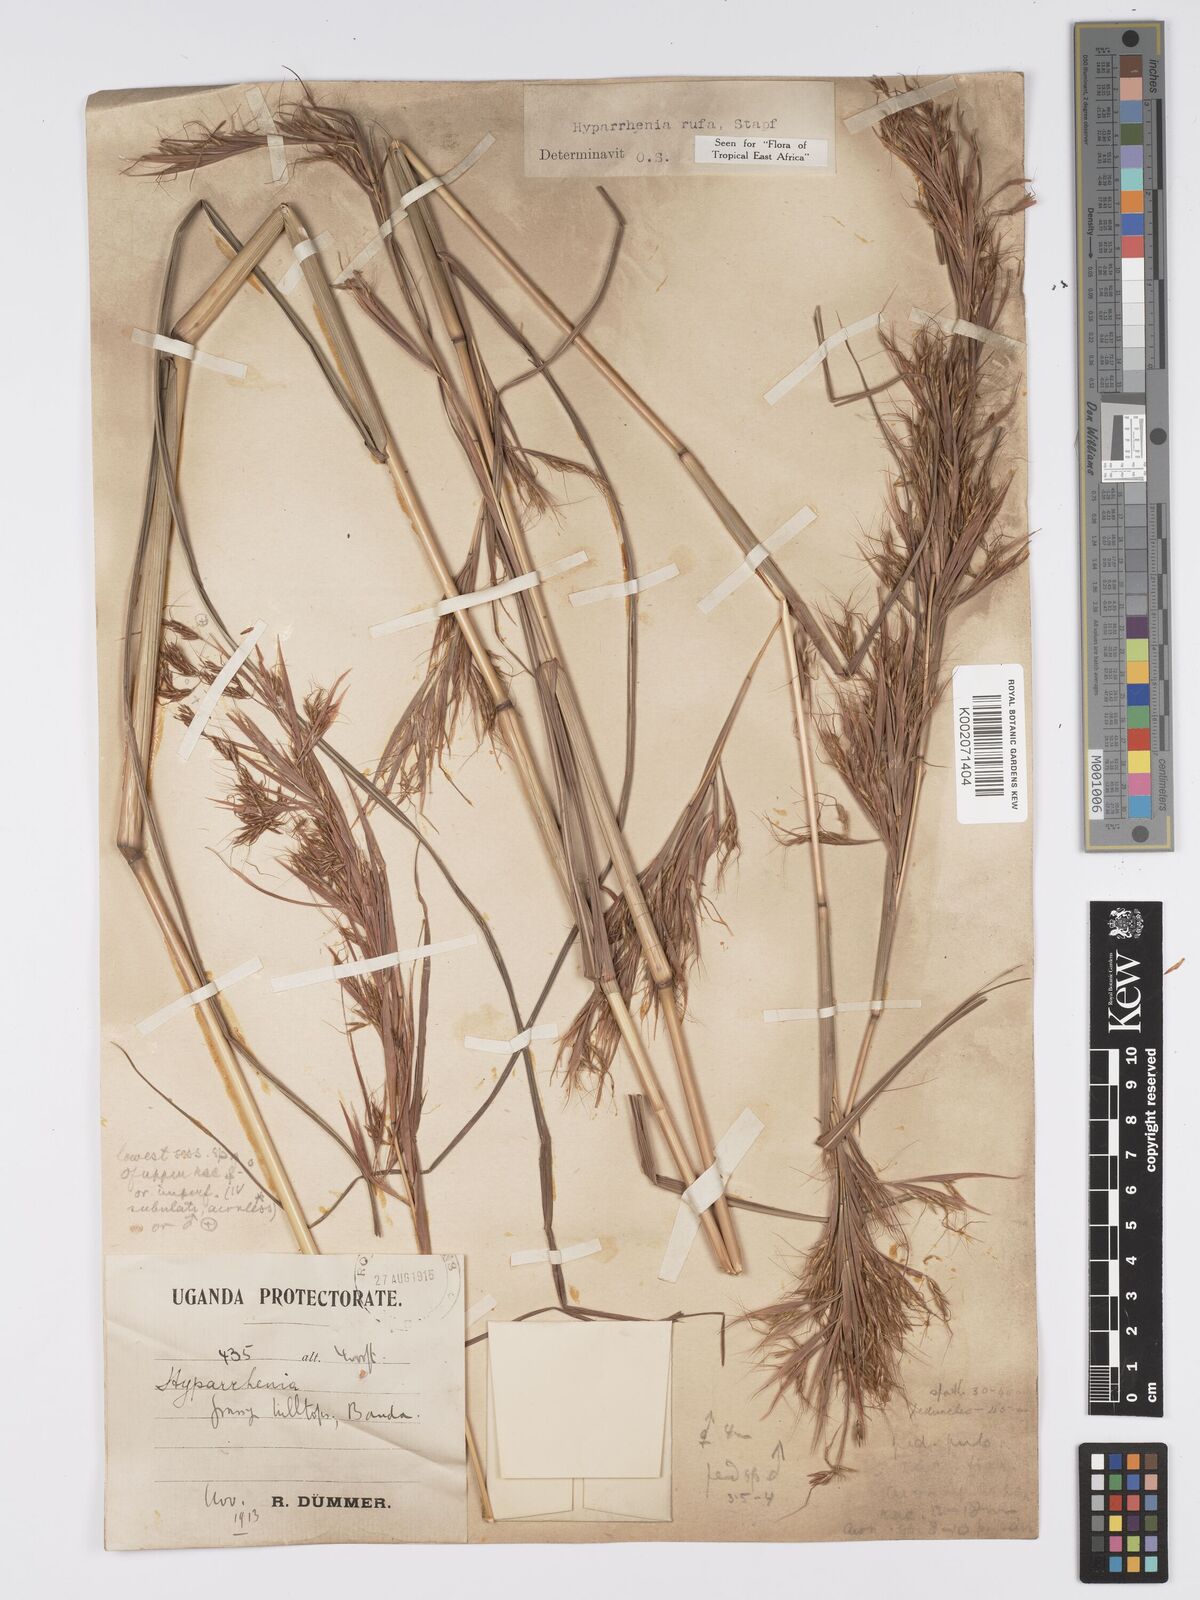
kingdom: Plantae
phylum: Tracheophyta
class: Liliopsida
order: Poales
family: Poaceae
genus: Hyparrhenia
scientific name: Hyparrhenia rufa
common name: Jaraguagrass
